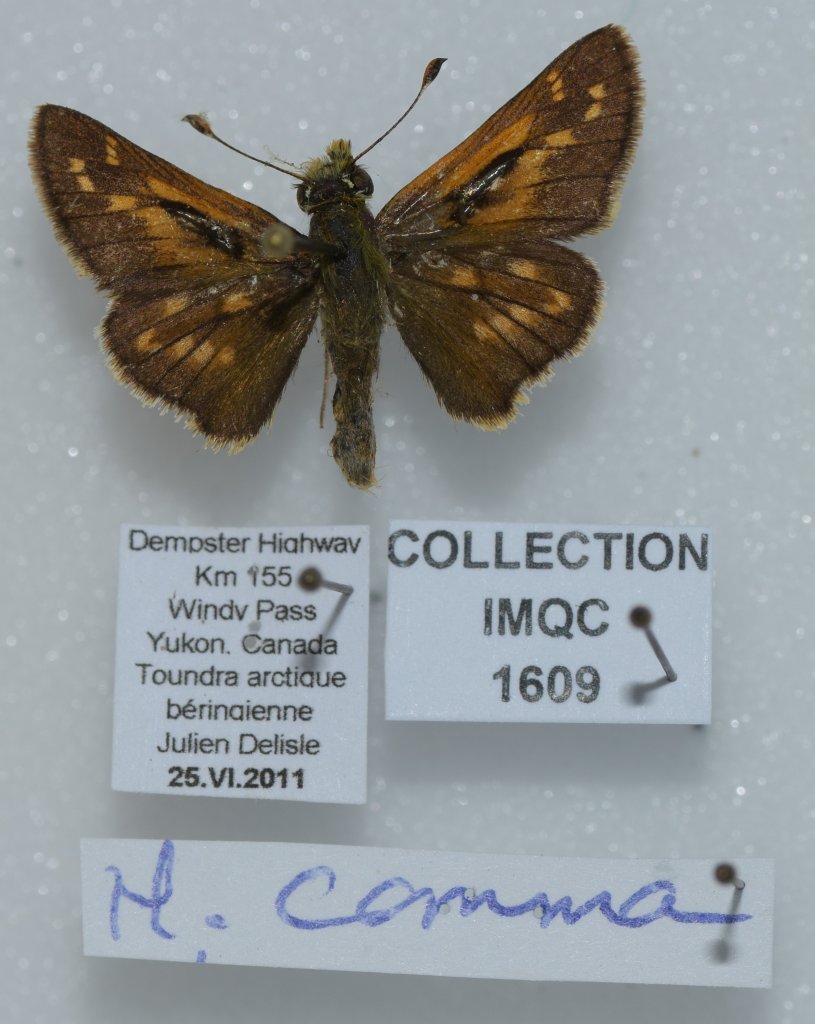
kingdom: Animalia
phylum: Arthropoda
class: Insecta
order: Lepidoptera
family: Hesperiidae
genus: Hesperia
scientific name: Hesperia comma
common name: Common Branded Skipper
